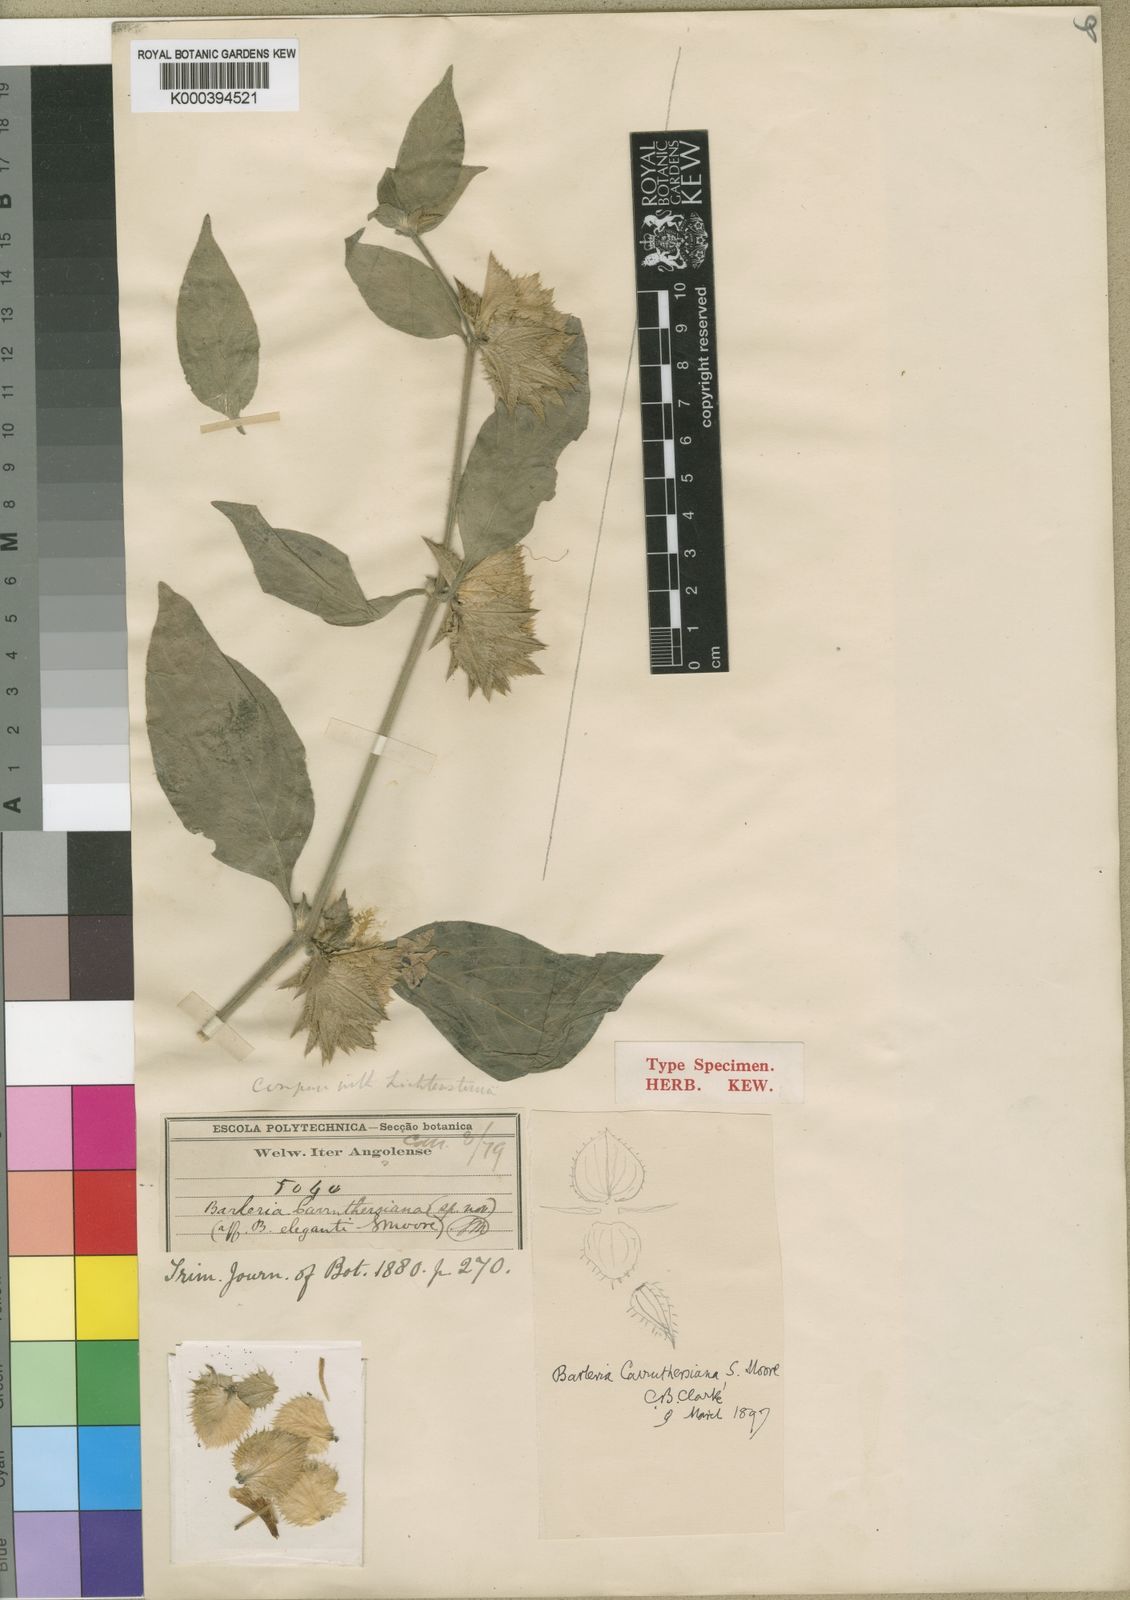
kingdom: Plantae
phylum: Tracheophyta
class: Magnoliopsida
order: Lamiales
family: Acanthaceae
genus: Barleria
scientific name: Barleria carruthersiana
